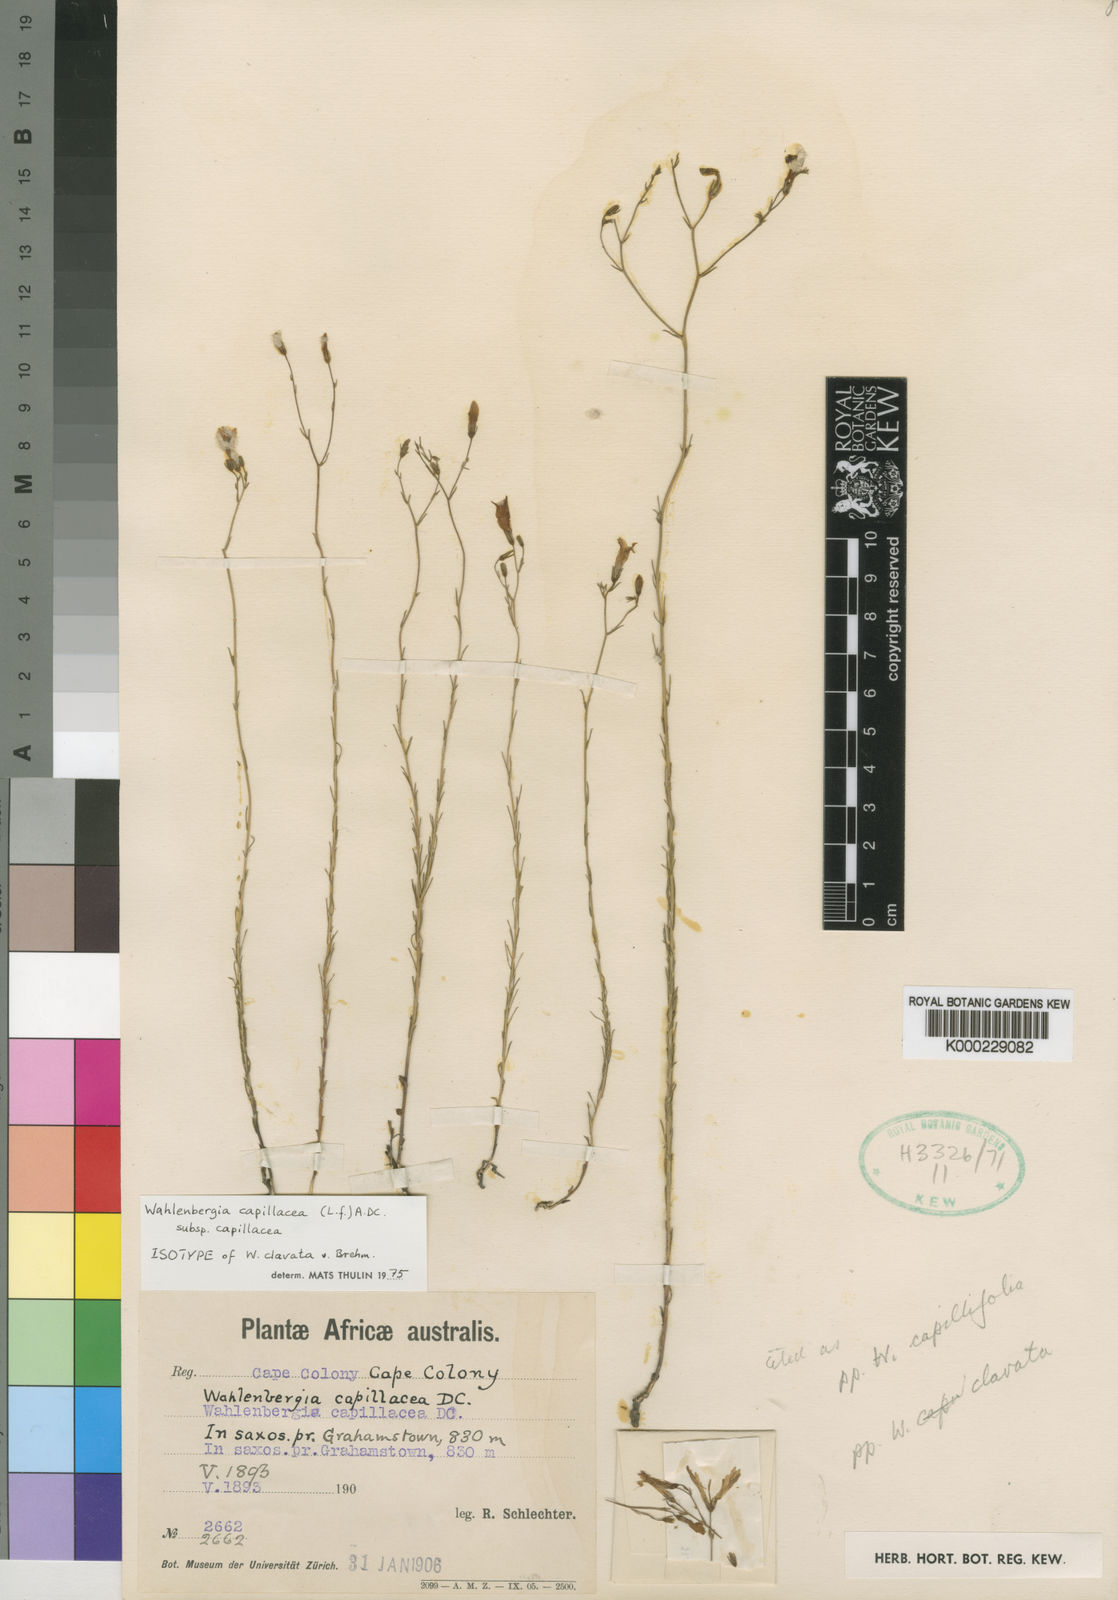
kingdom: Plantae
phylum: Tracheophyta
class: Magnoliopsida
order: Asterales
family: Campanulaceae
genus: Wahlenbergia
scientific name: Wahlenbergia capillacea
